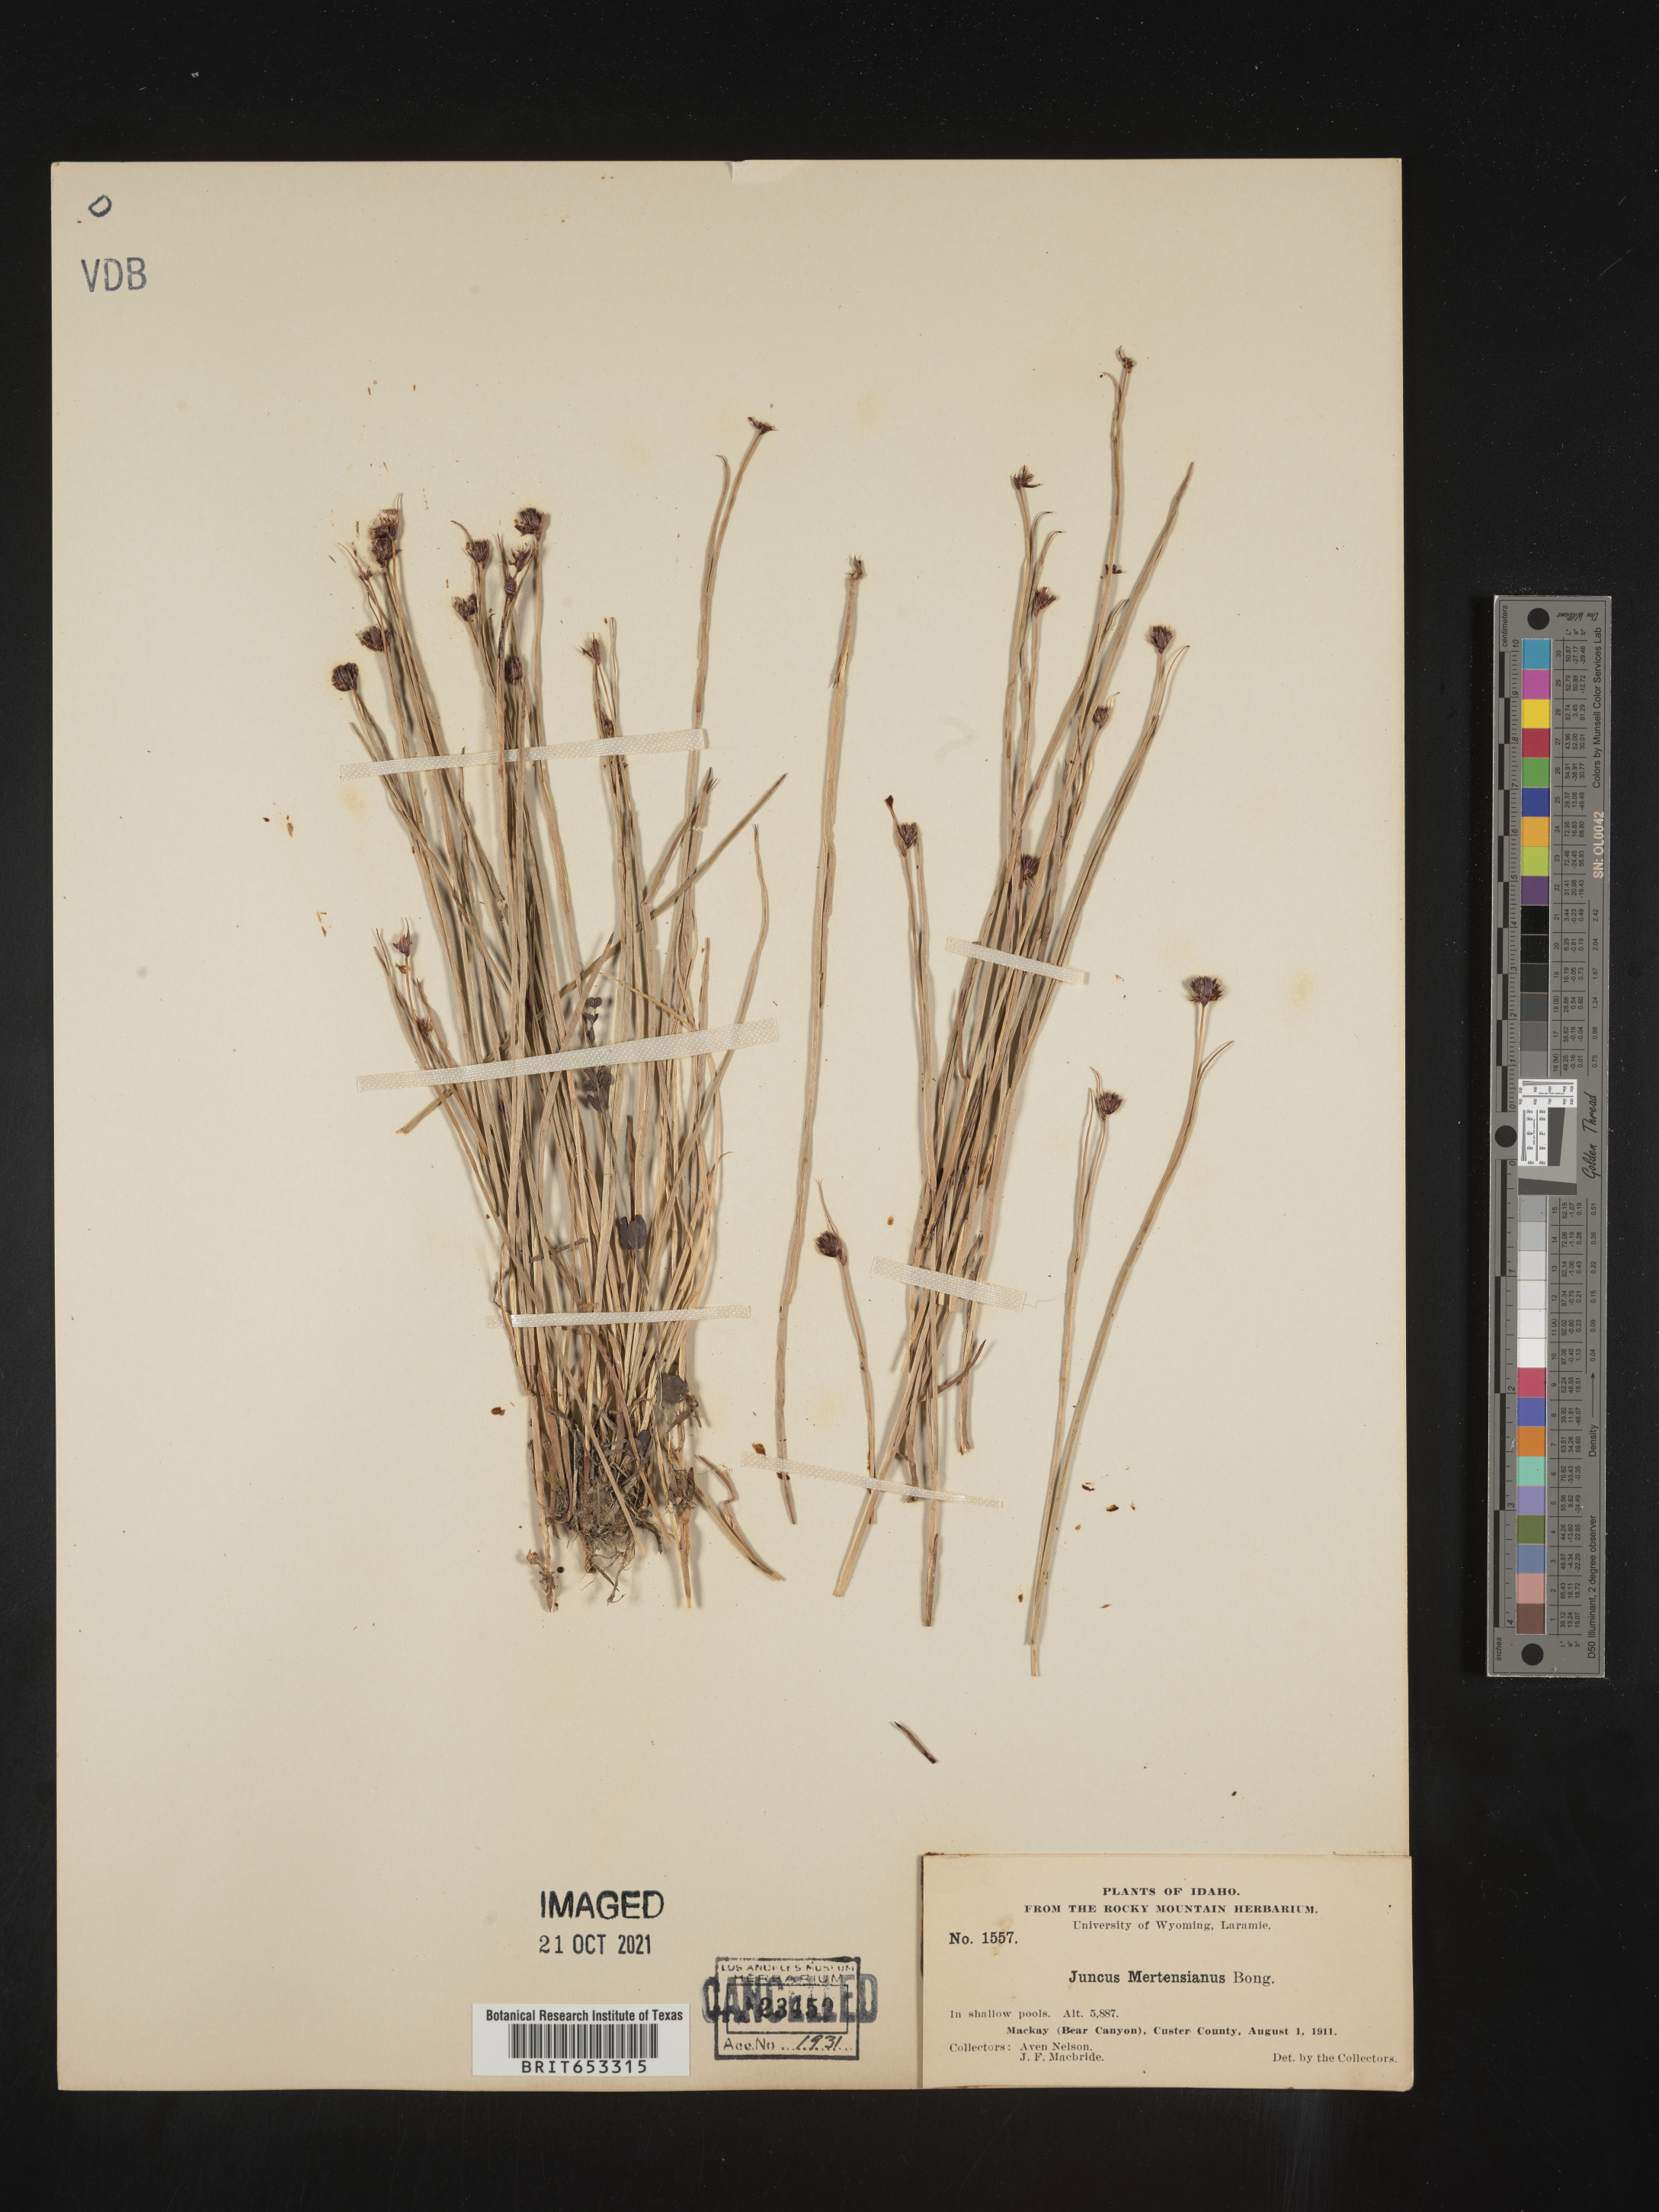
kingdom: Plantae
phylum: Tracheophyta
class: Liliopsida
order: Poales
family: Juncaceae
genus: Juncus
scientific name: Juncus mertensianus
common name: Merten's rush
